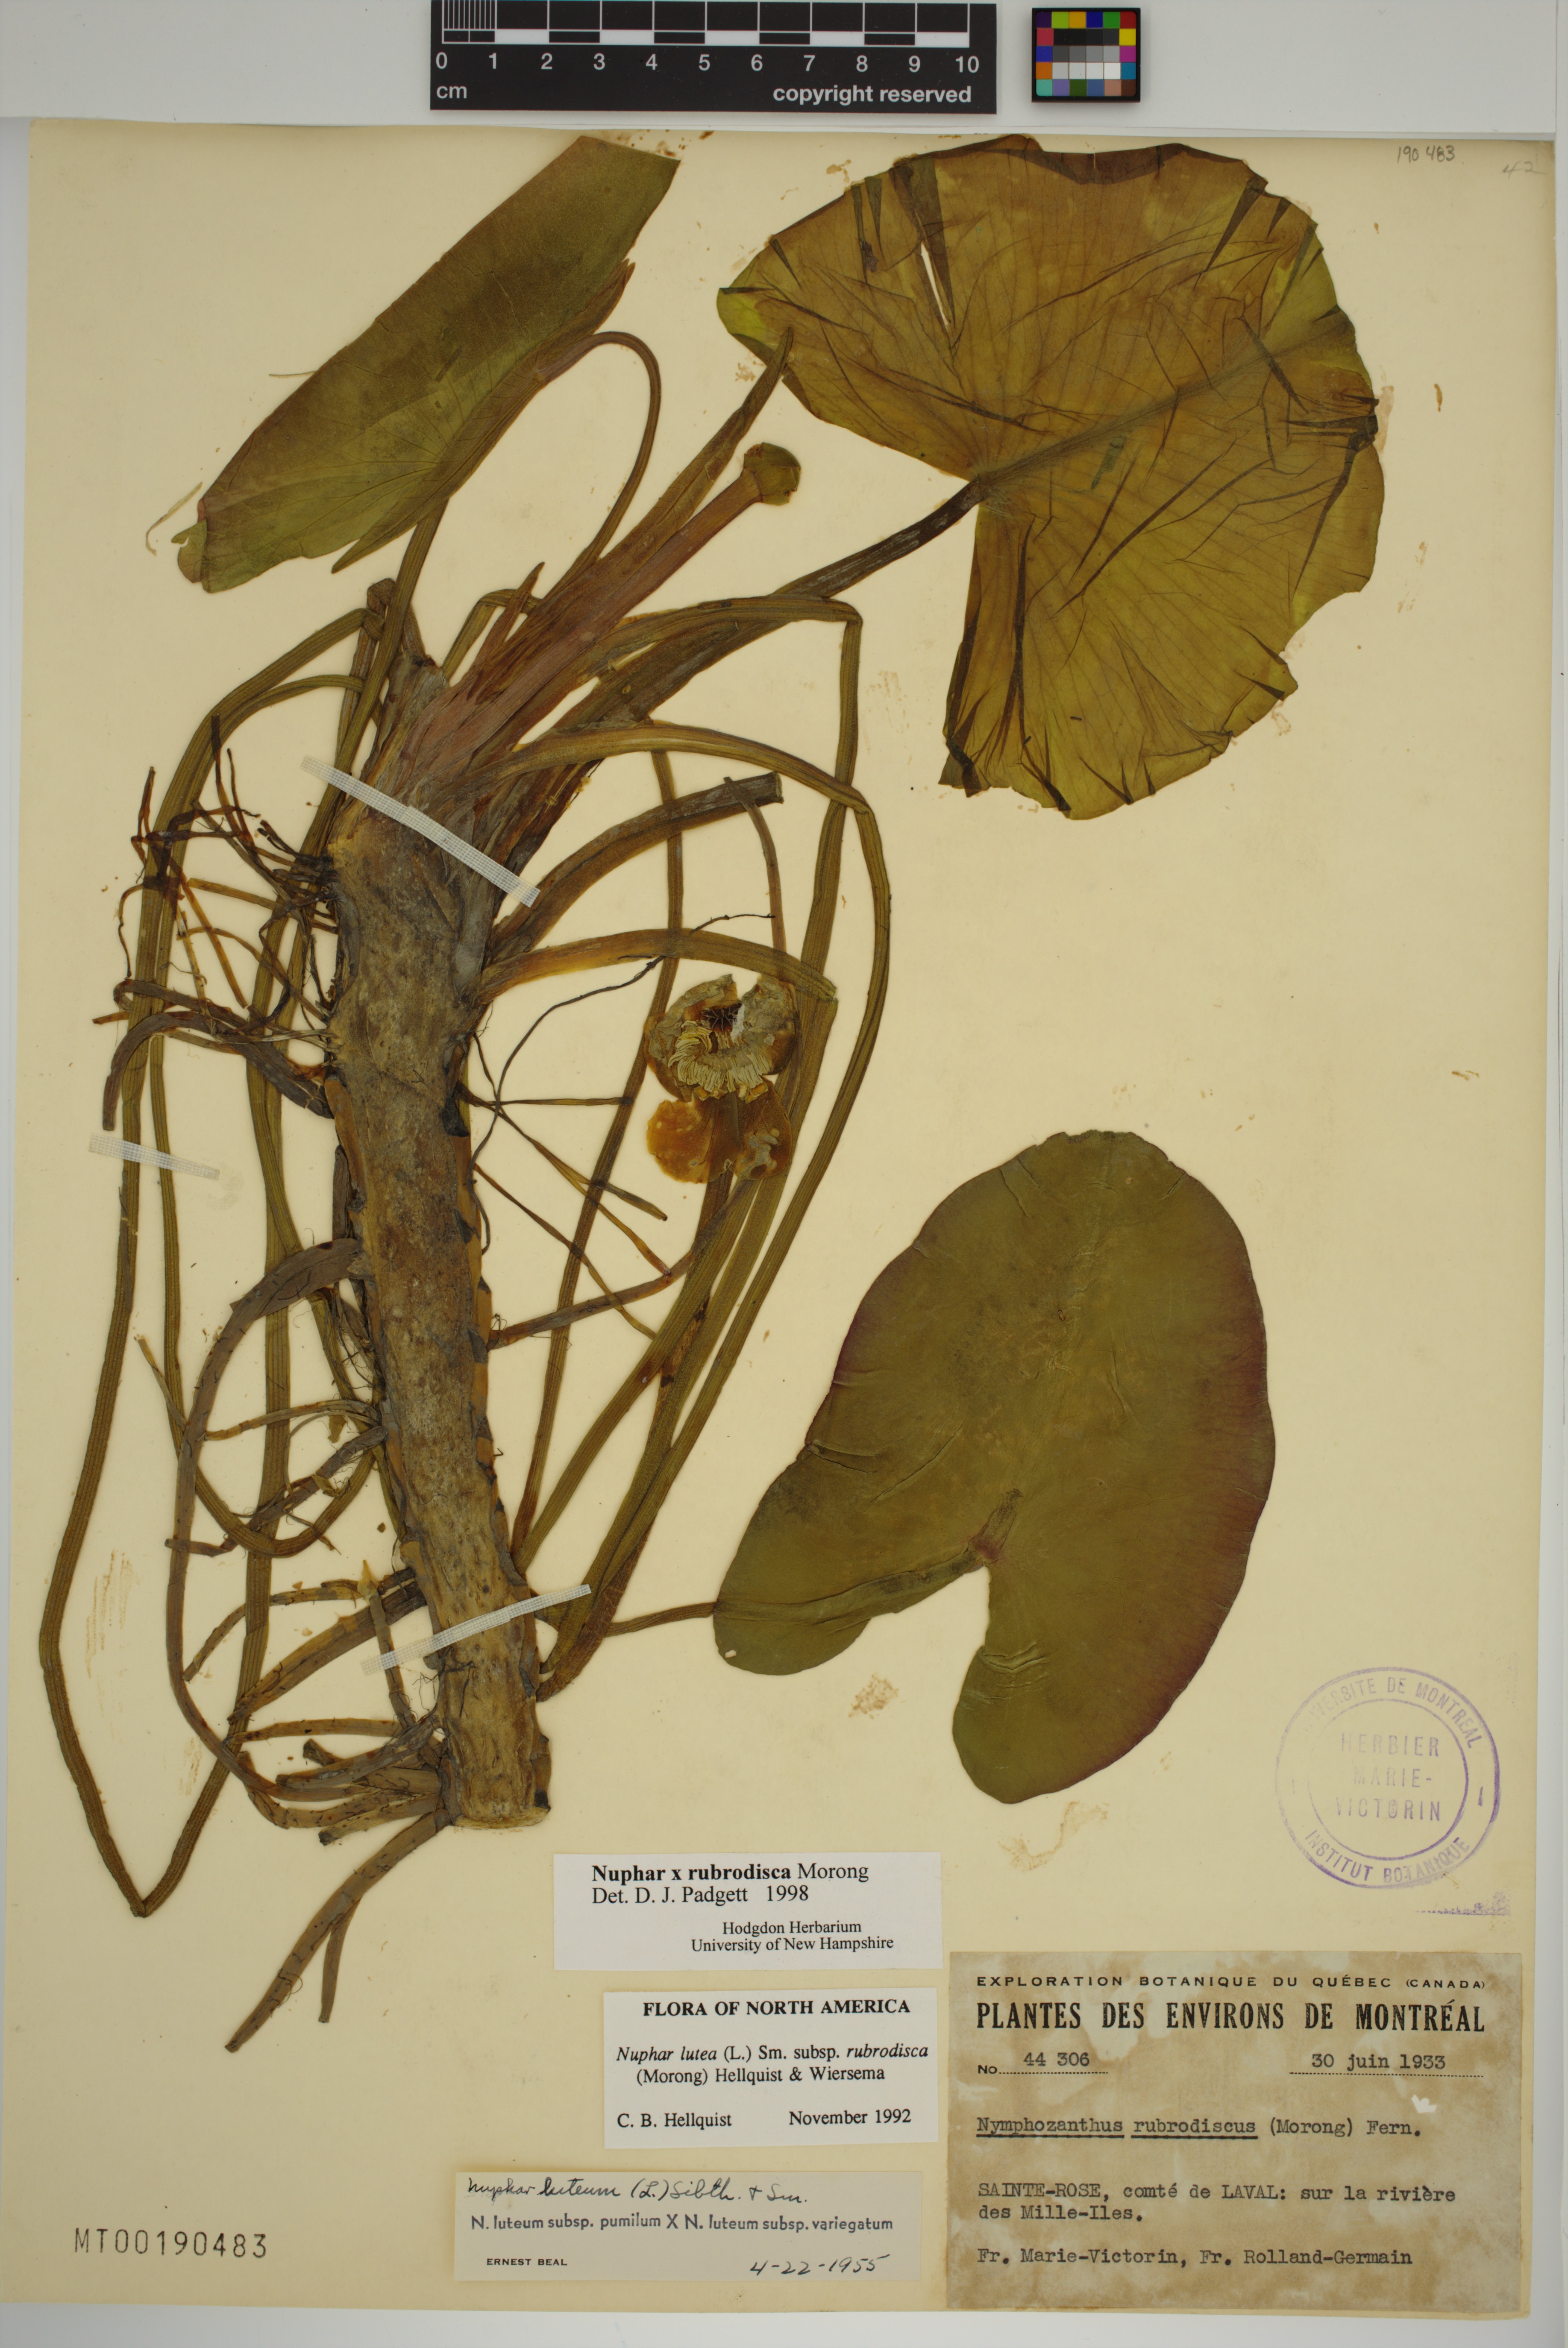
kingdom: Plantae
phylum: Tracheophyta
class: Magnoliopsida
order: Nymphaeales
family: Nymphaeaceae
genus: Nuphar
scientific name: Nuphar rubrodisca
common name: Yellow pond-lily
